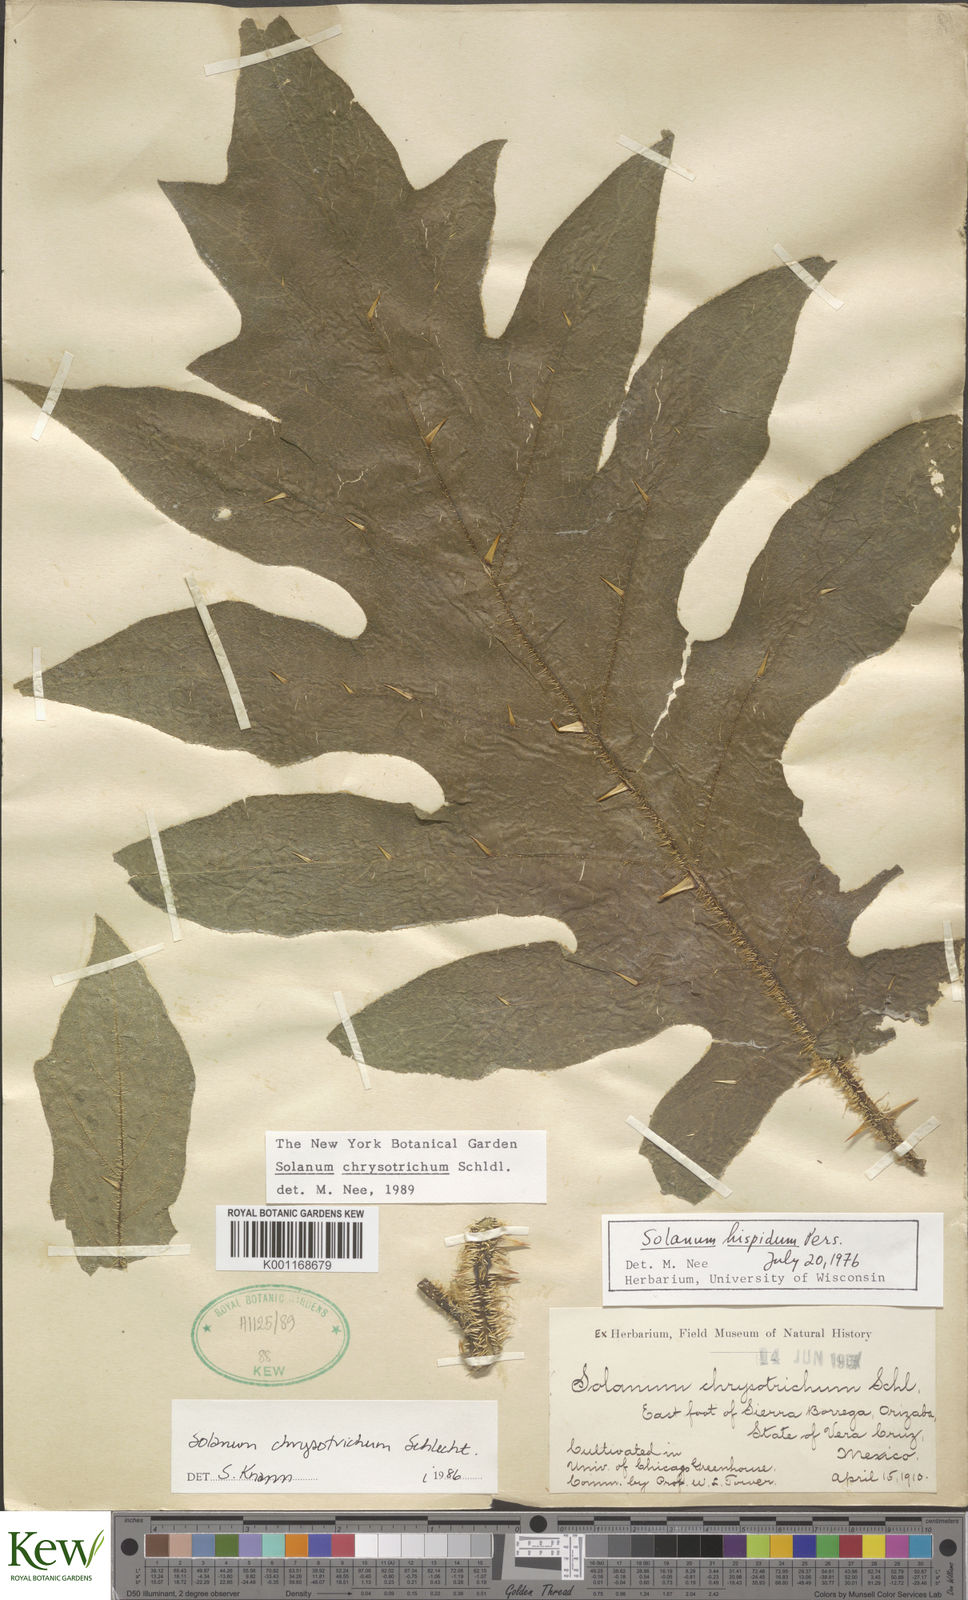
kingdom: Plantae
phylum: Tracheophyta
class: Magnoliopsida
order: Solanales
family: Solanaceae
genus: Solanum
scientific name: Solanum chrysotrichum
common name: Nightshade
